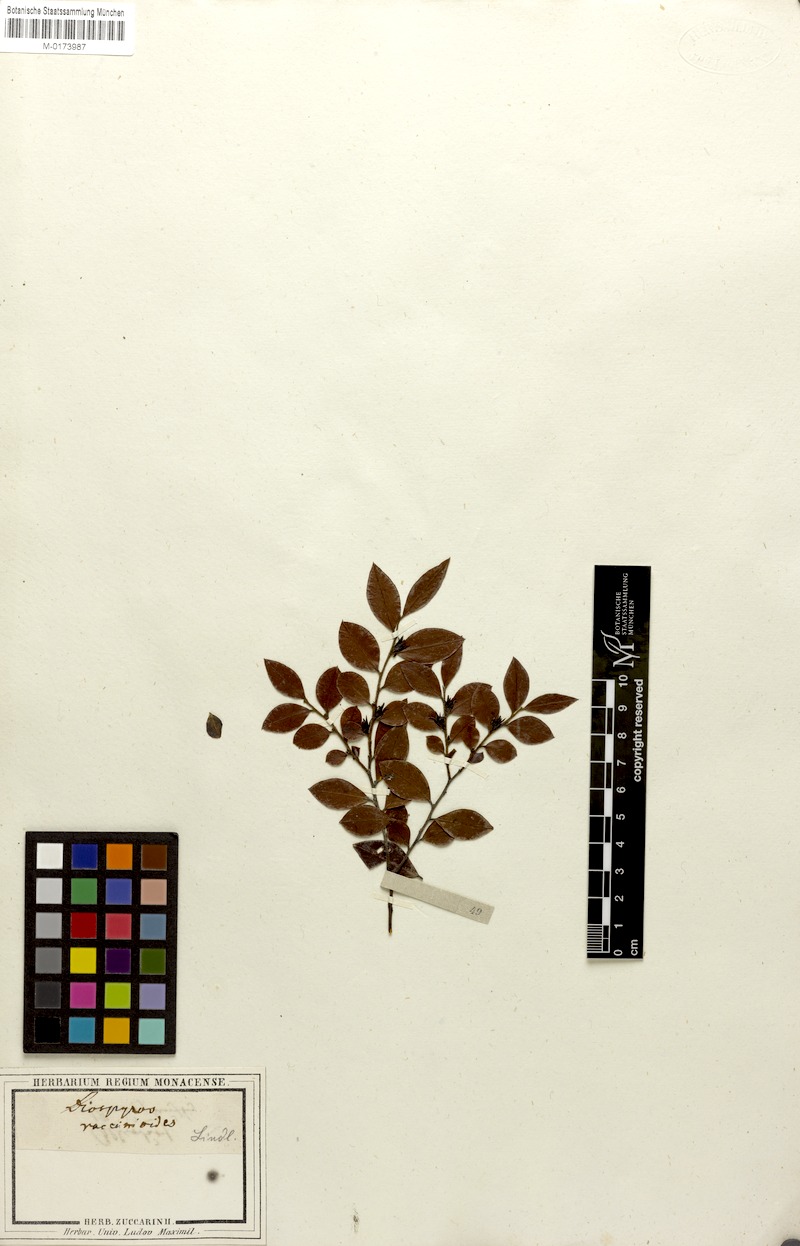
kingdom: Plantae
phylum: Tracheophyta
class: Magnoliopsida
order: Ericales
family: Ebenaceae
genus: Diospyros
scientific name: Diospyros vaccinioides
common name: Small persimmon
